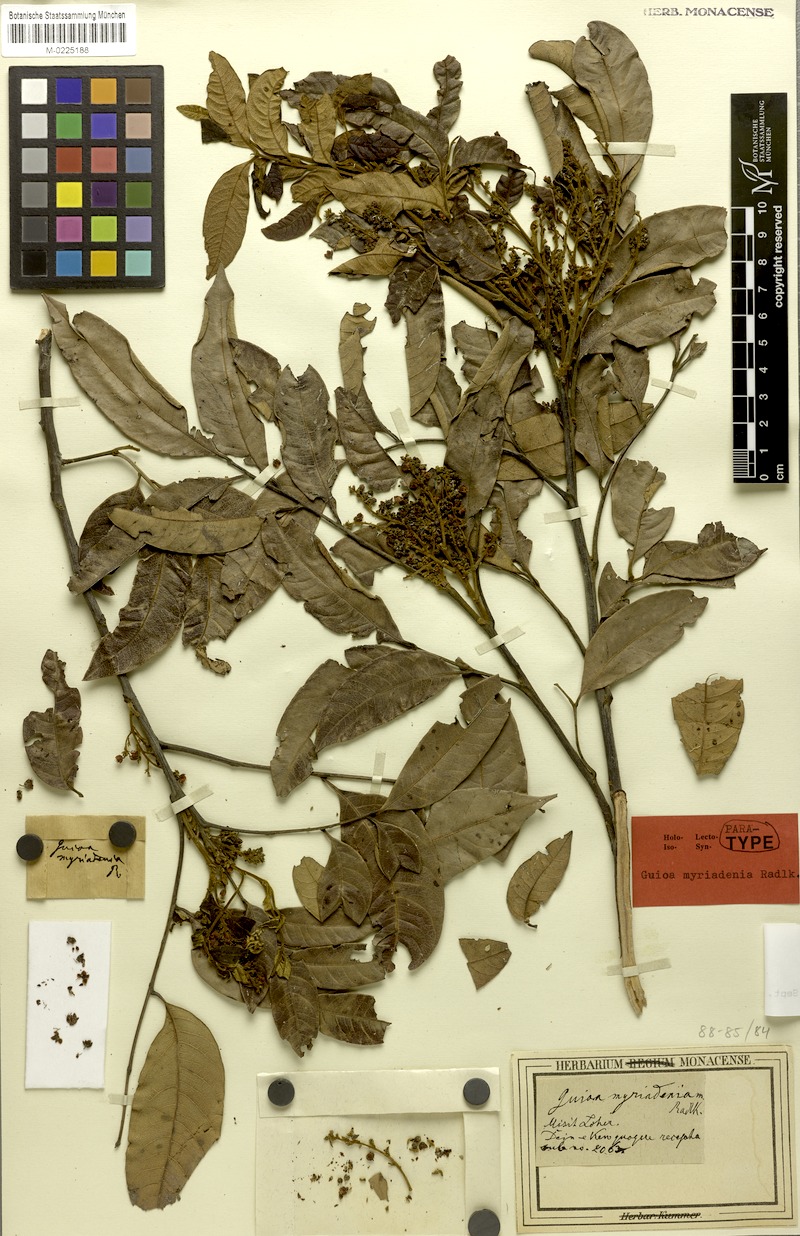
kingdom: Plantae
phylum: Tracheophyta
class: Magnoliopsida
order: Sapindales
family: Sapindaceae
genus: Guioa
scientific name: Guioa myriadenia
